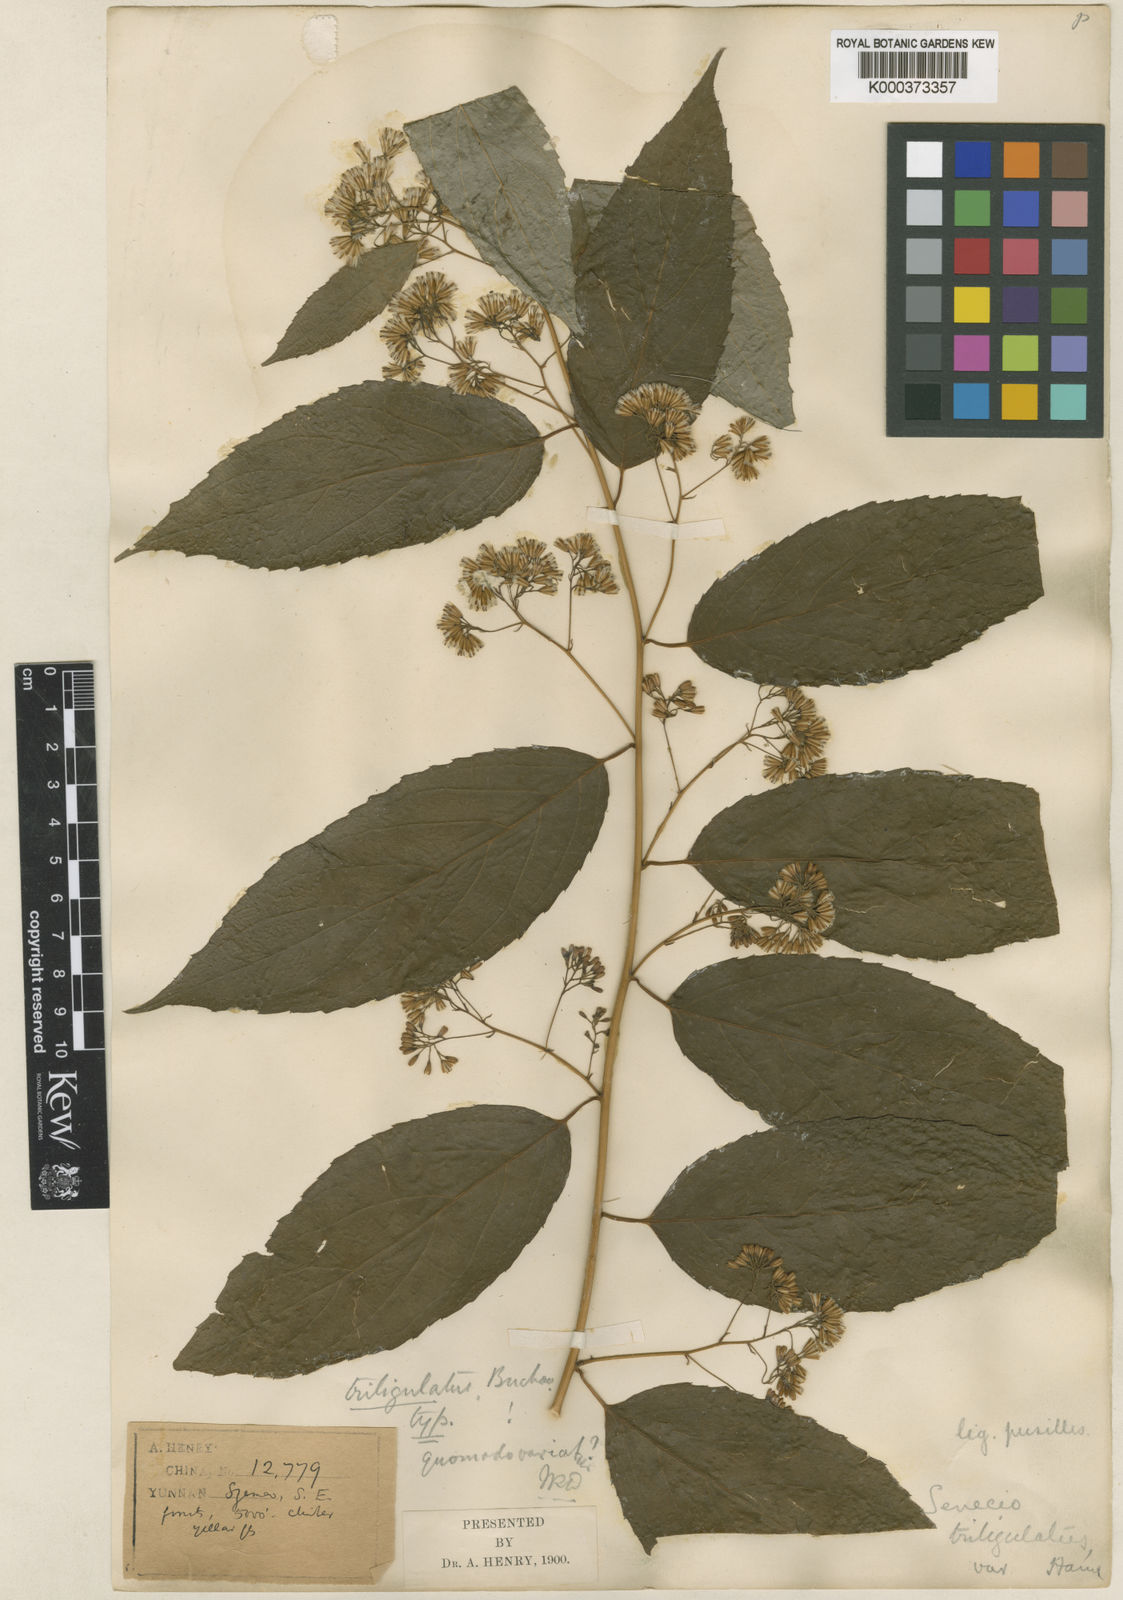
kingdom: Plantae
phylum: Tracheophyta
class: Magnoliopsida
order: Asterales
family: Asteraceae
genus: Synotis
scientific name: Synotis triligulata
